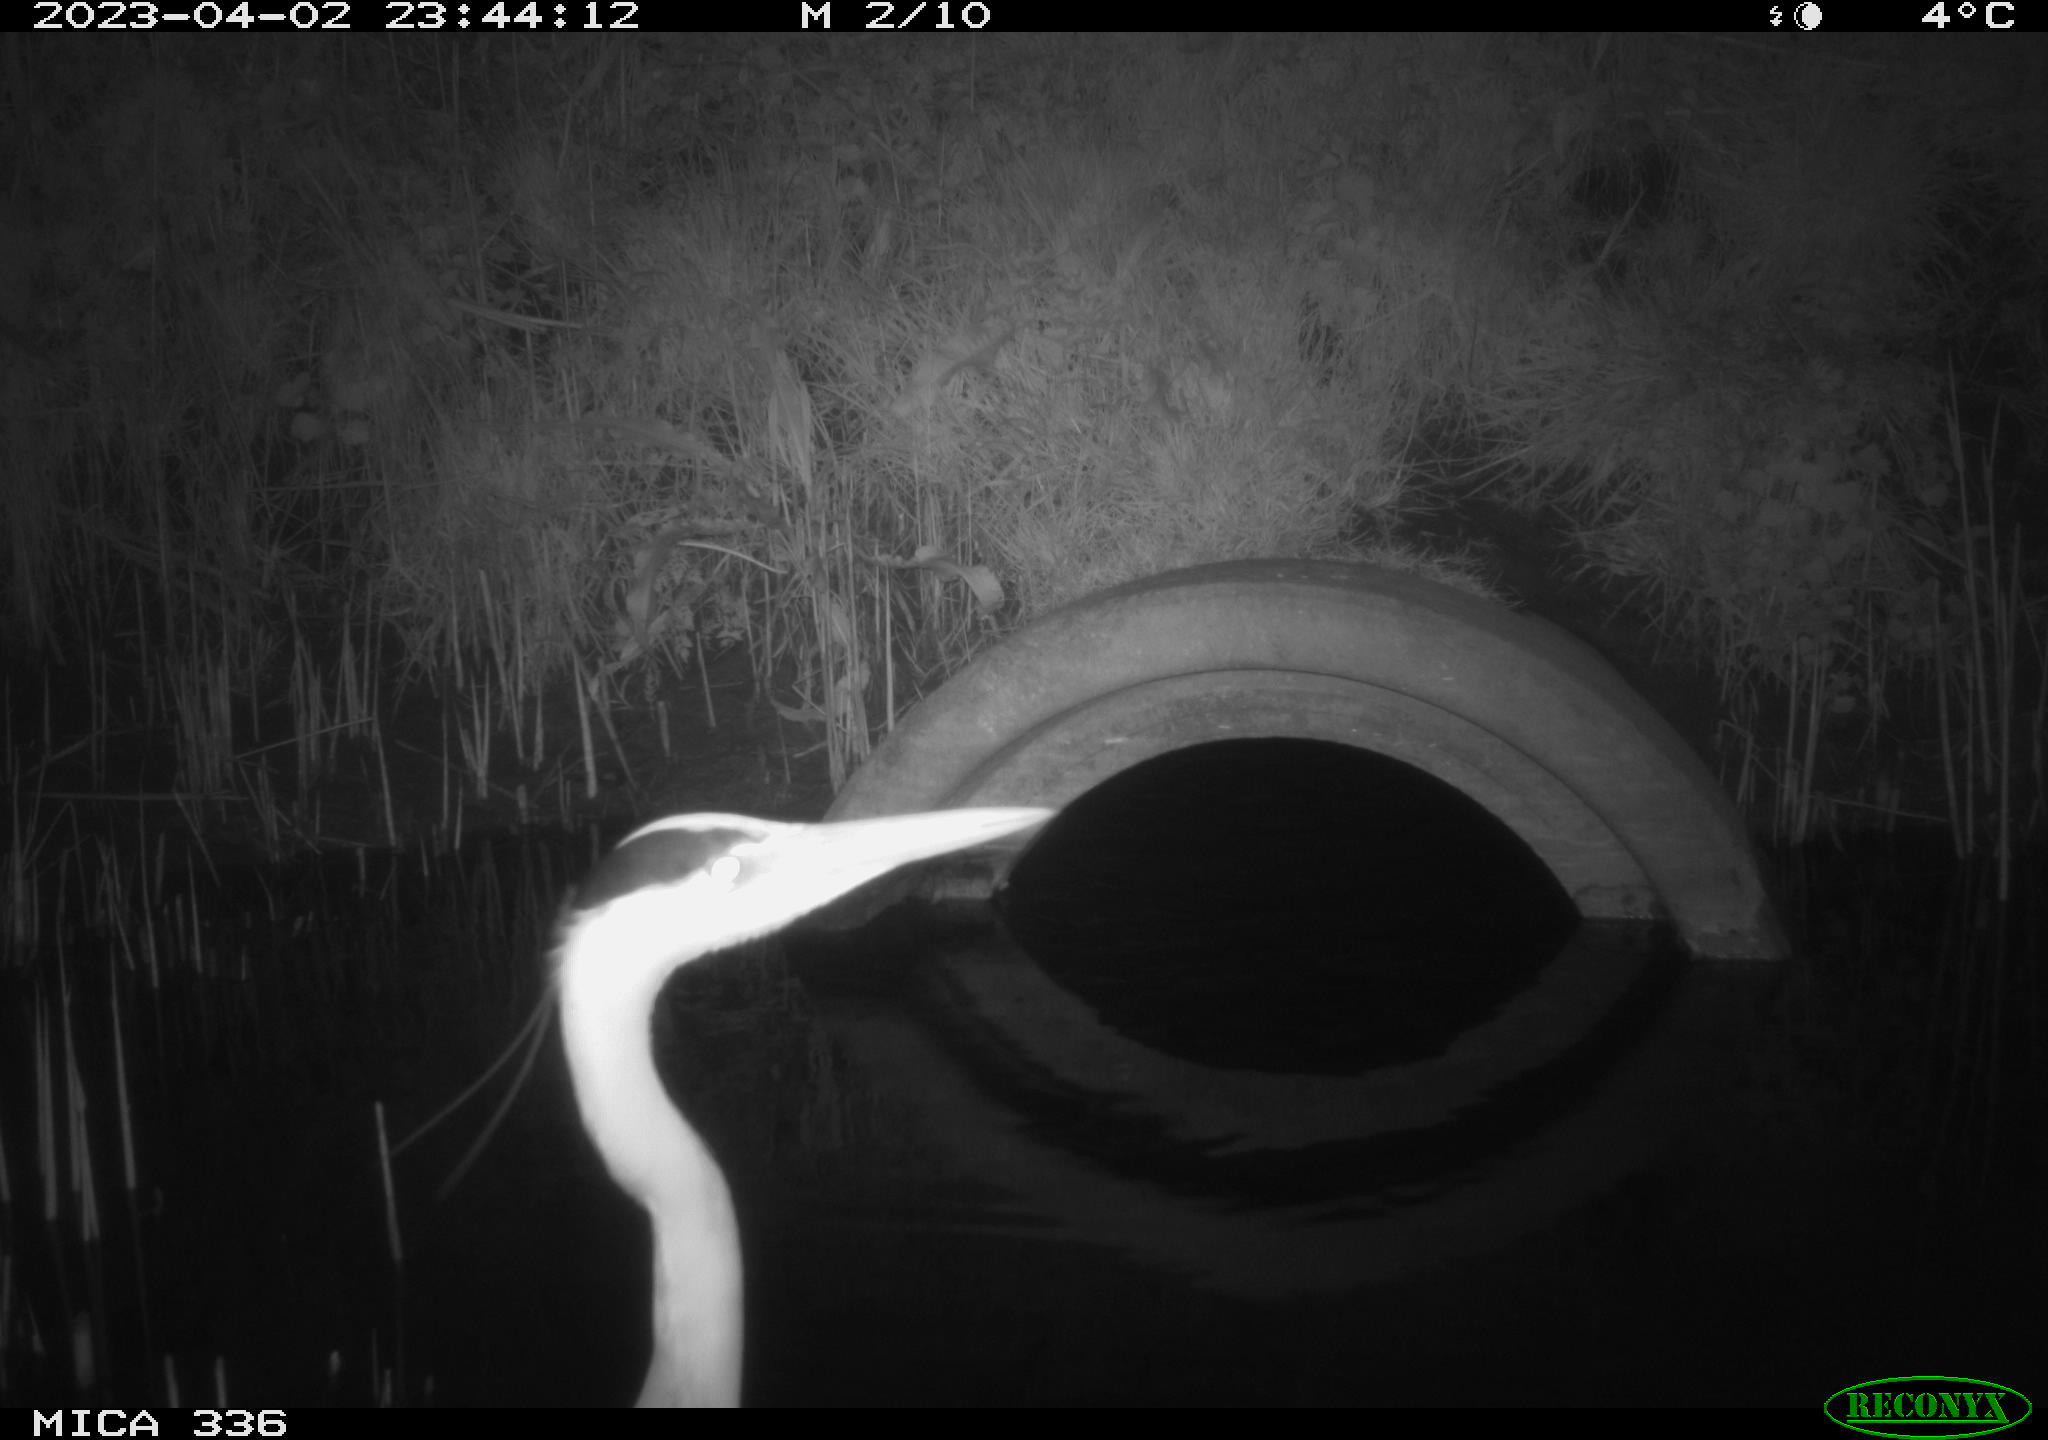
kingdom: Animalia
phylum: Chordata
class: Aves
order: Pelecaniformes
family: Ardeidae
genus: Ardea
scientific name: Ardea cinerea
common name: Grey heron
